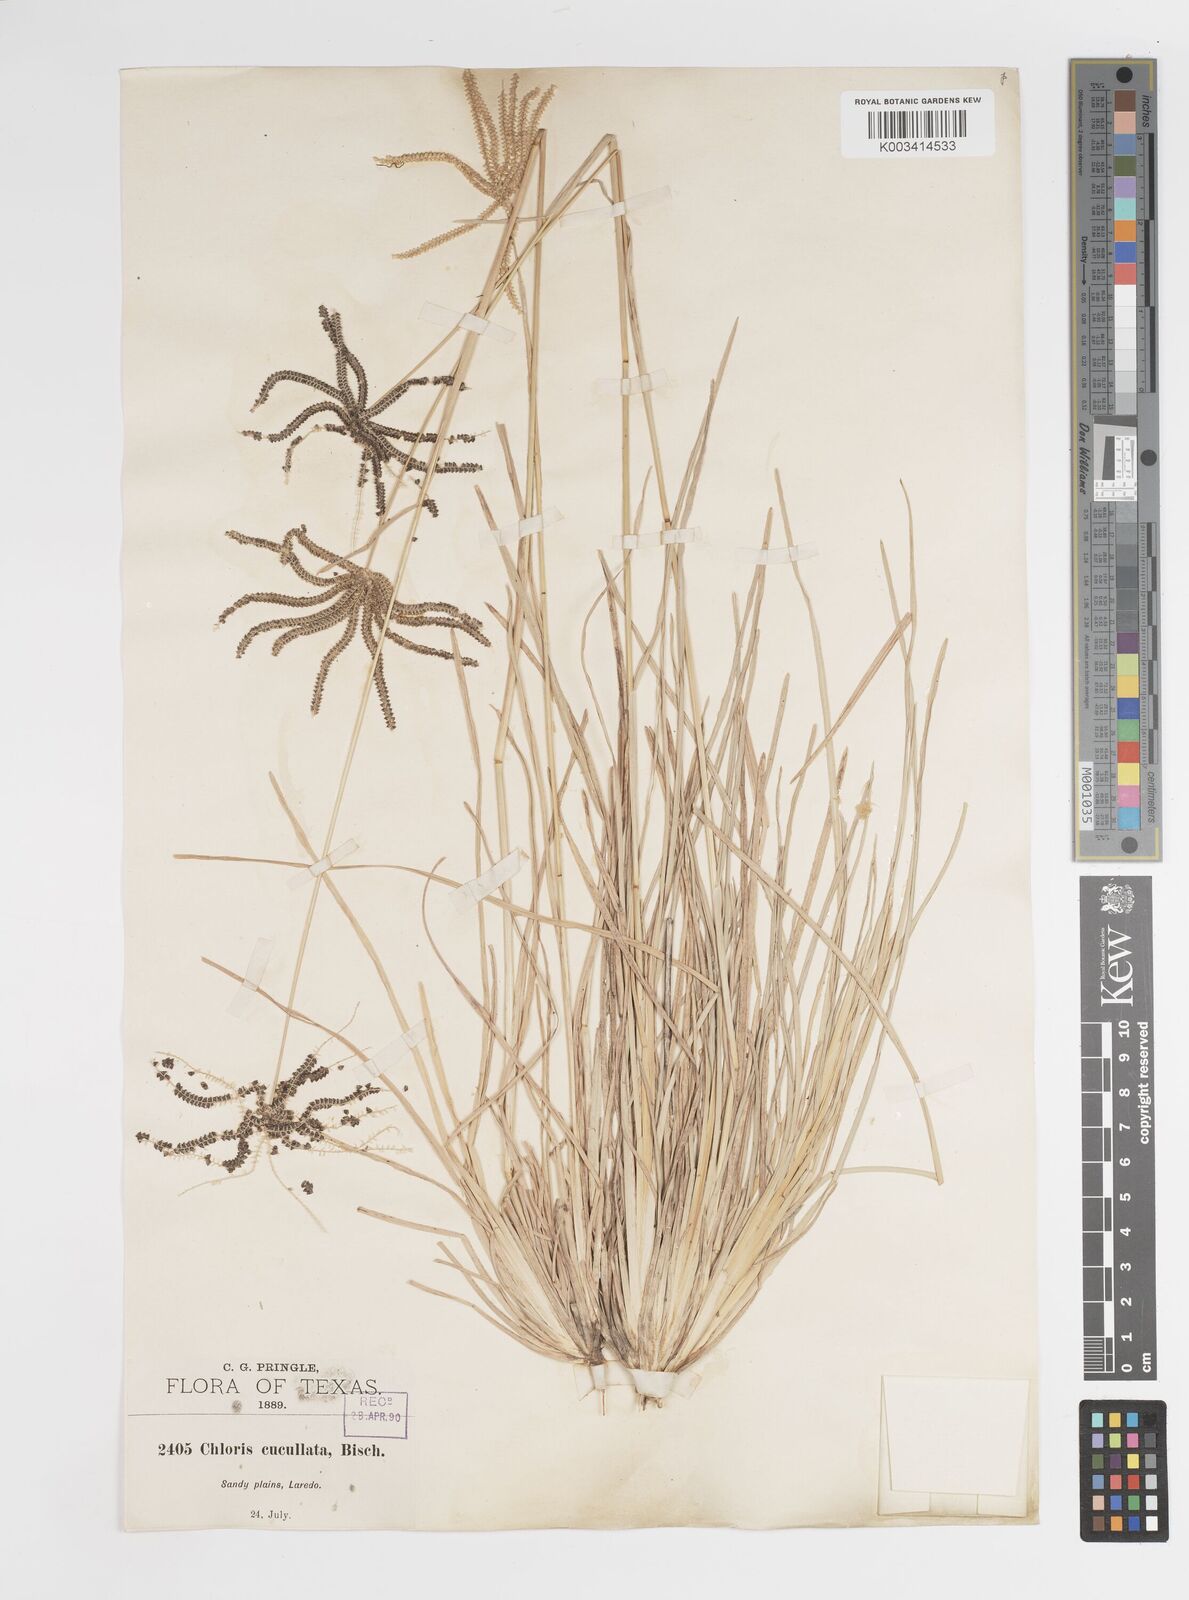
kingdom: Plantae
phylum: Tracheophyta
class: Liliopsida
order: Poales
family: Poaceae
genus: Chloris
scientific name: Chloris cucullata
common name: Hooded windmill grass
